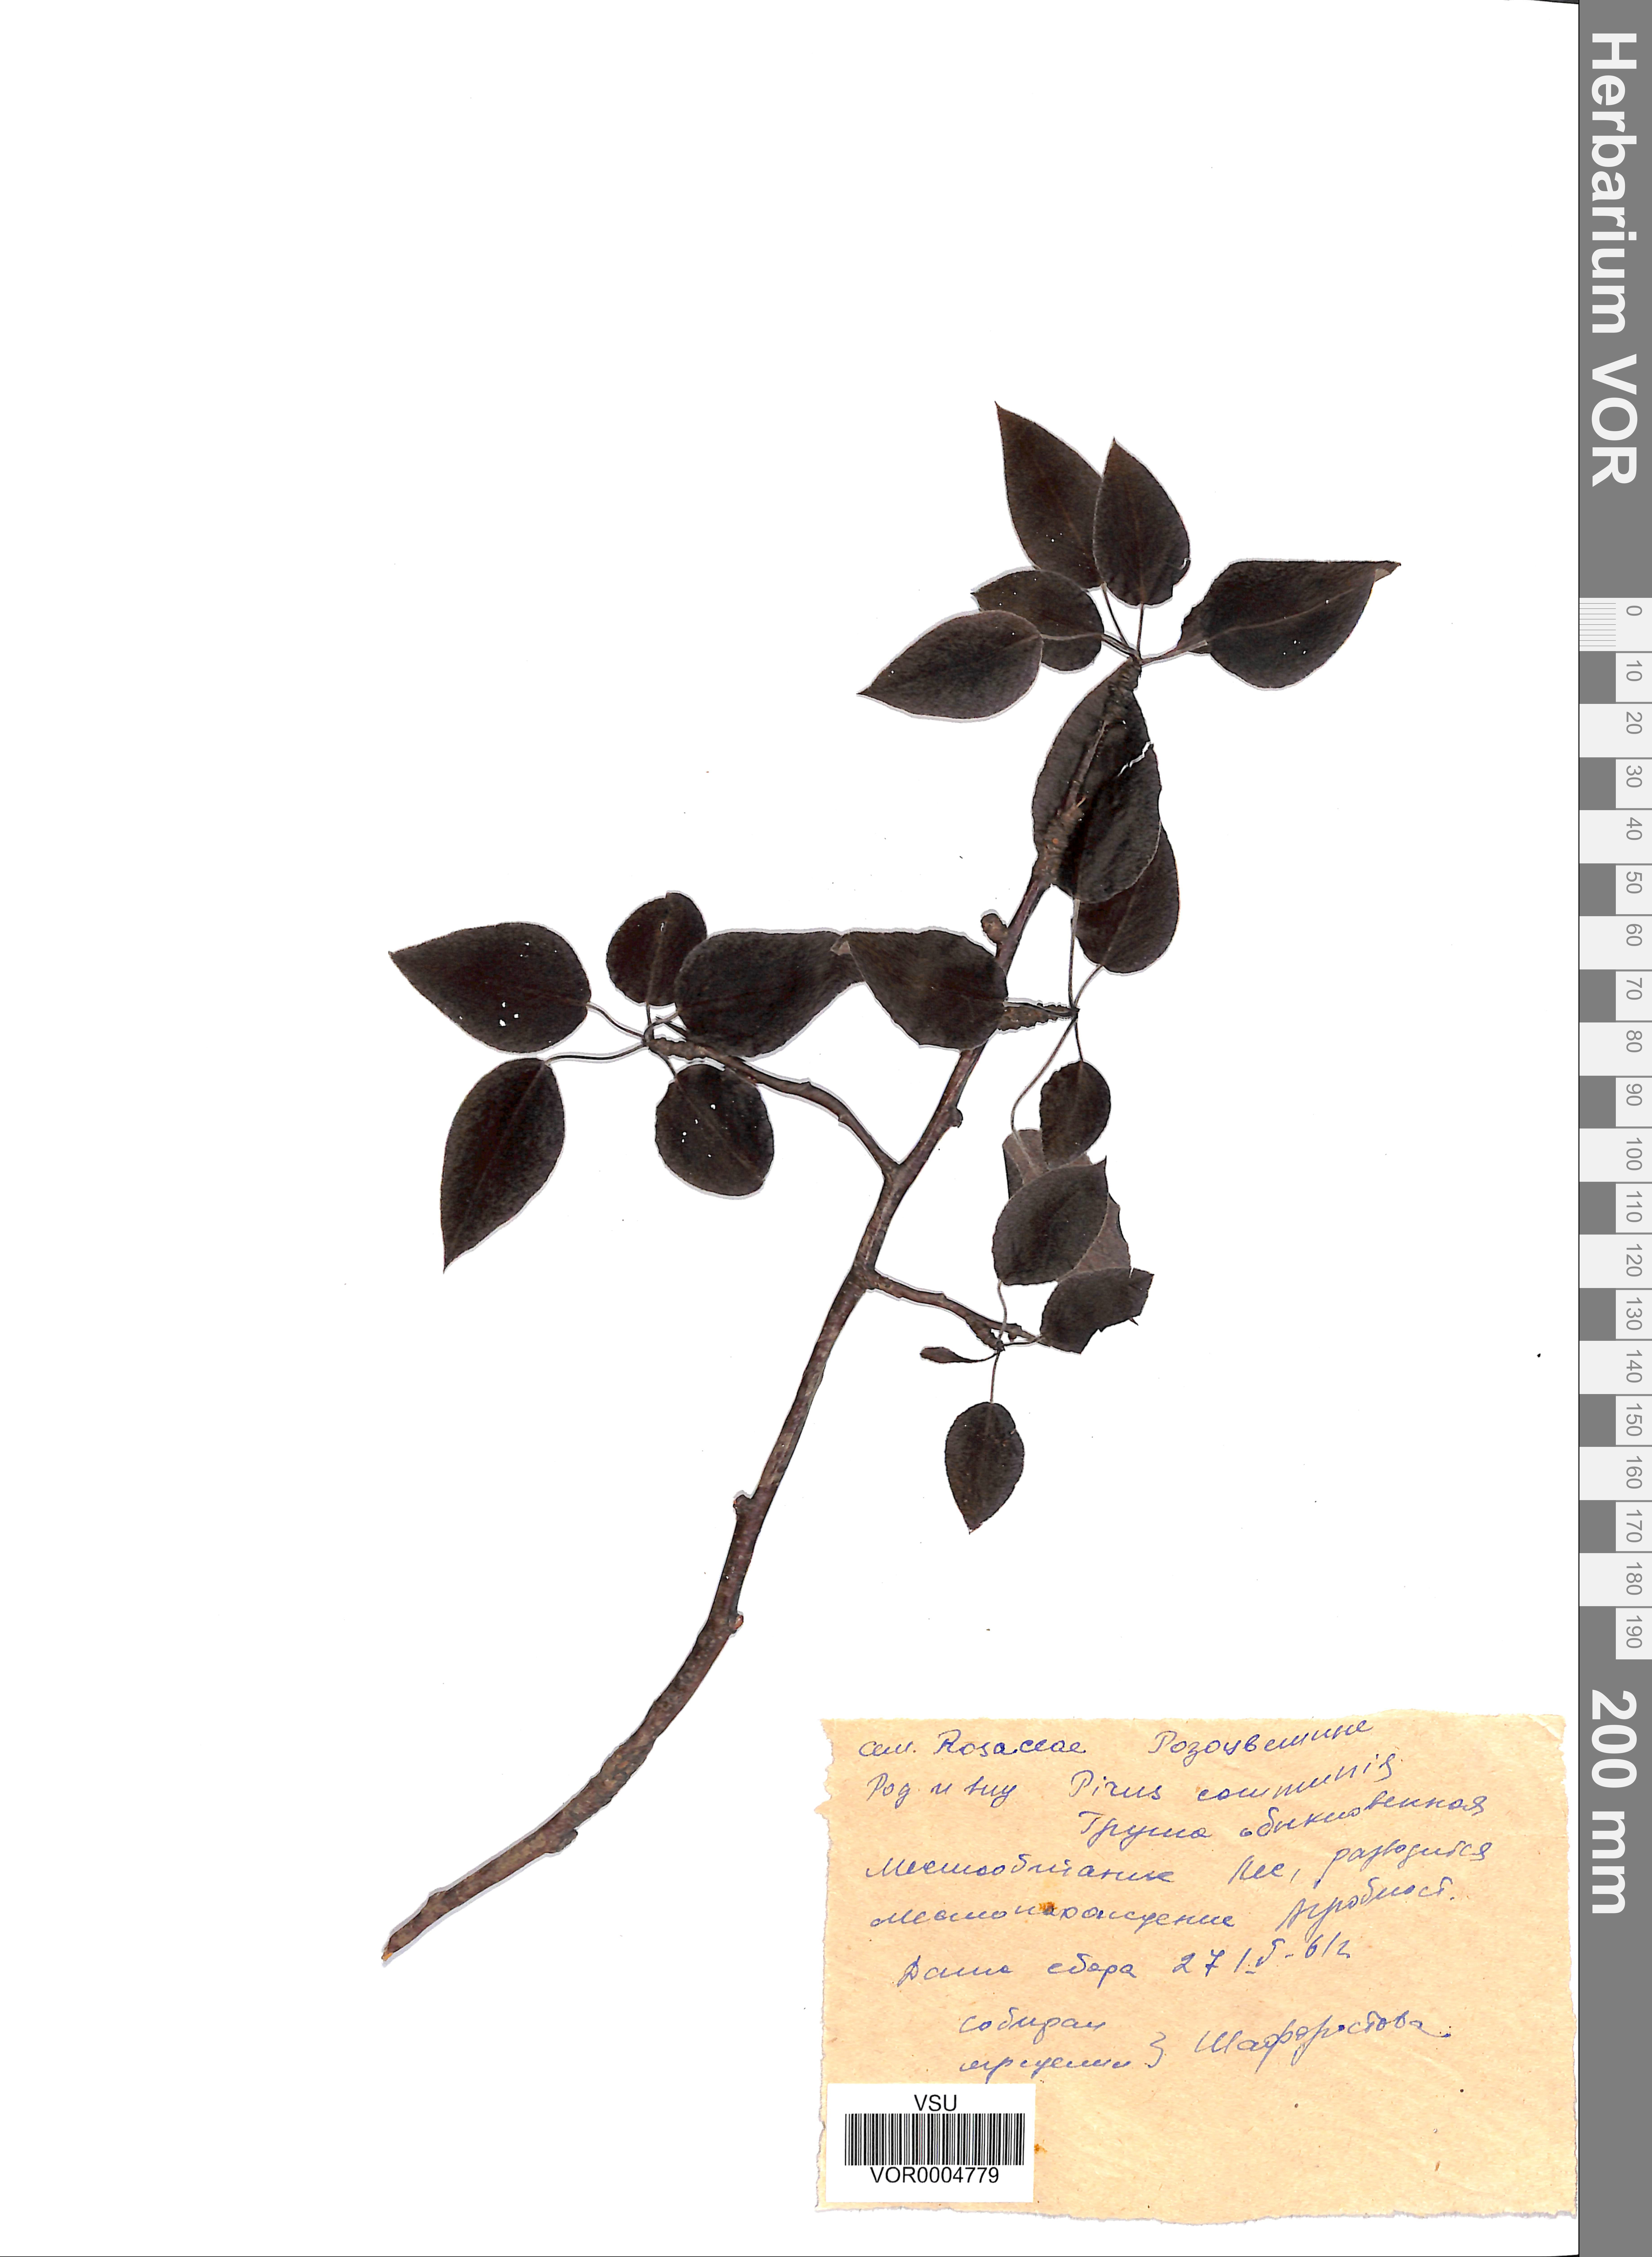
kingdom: Plantae
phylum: Tracheophyta
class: Magnoliopsida
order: Rosales
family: Rosaceae
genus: Pyrus
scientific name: Pyrus communis
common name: Pear
